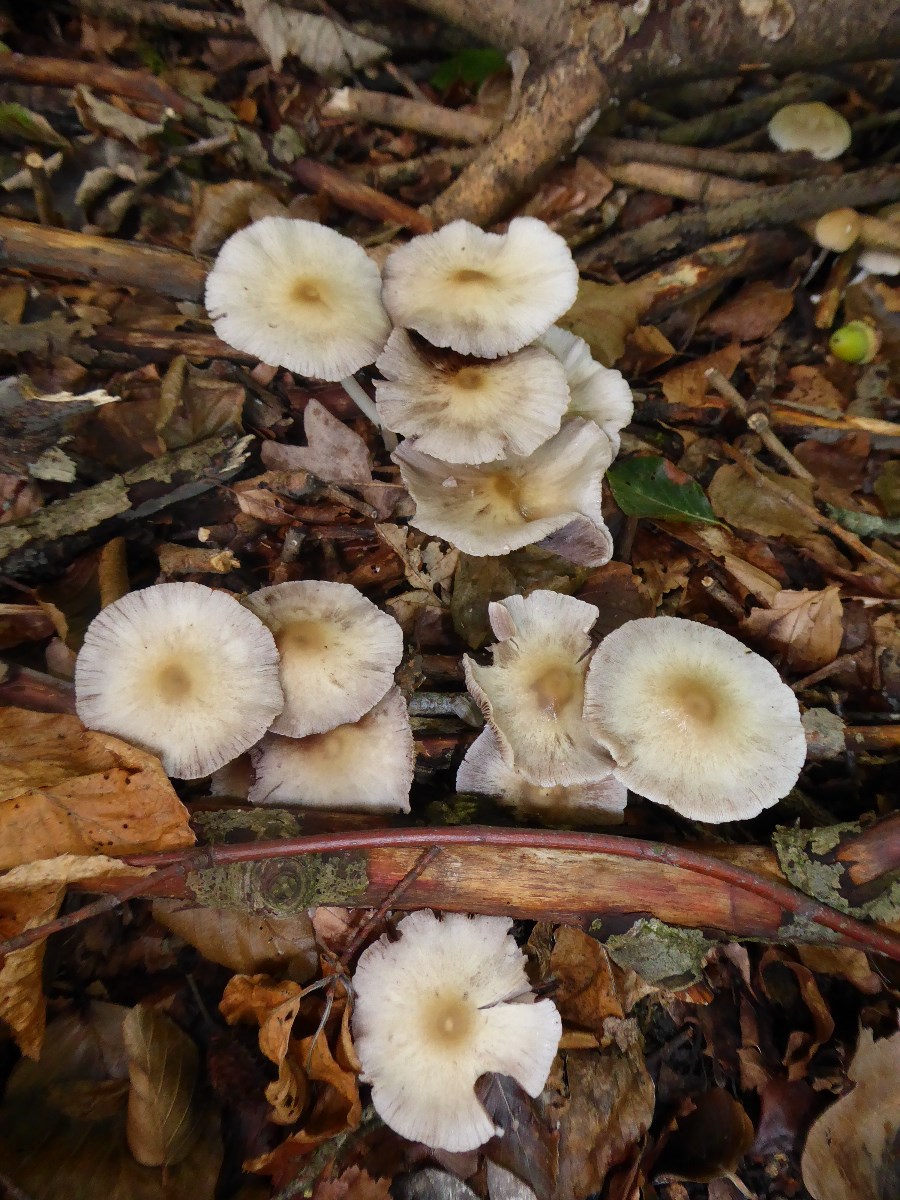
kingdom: Fungi
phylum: Basidiomycota
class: Agaricomycetes
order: Agaricales
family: Psathyrellaceae
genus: Psathyrella
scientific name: Psathyrella
